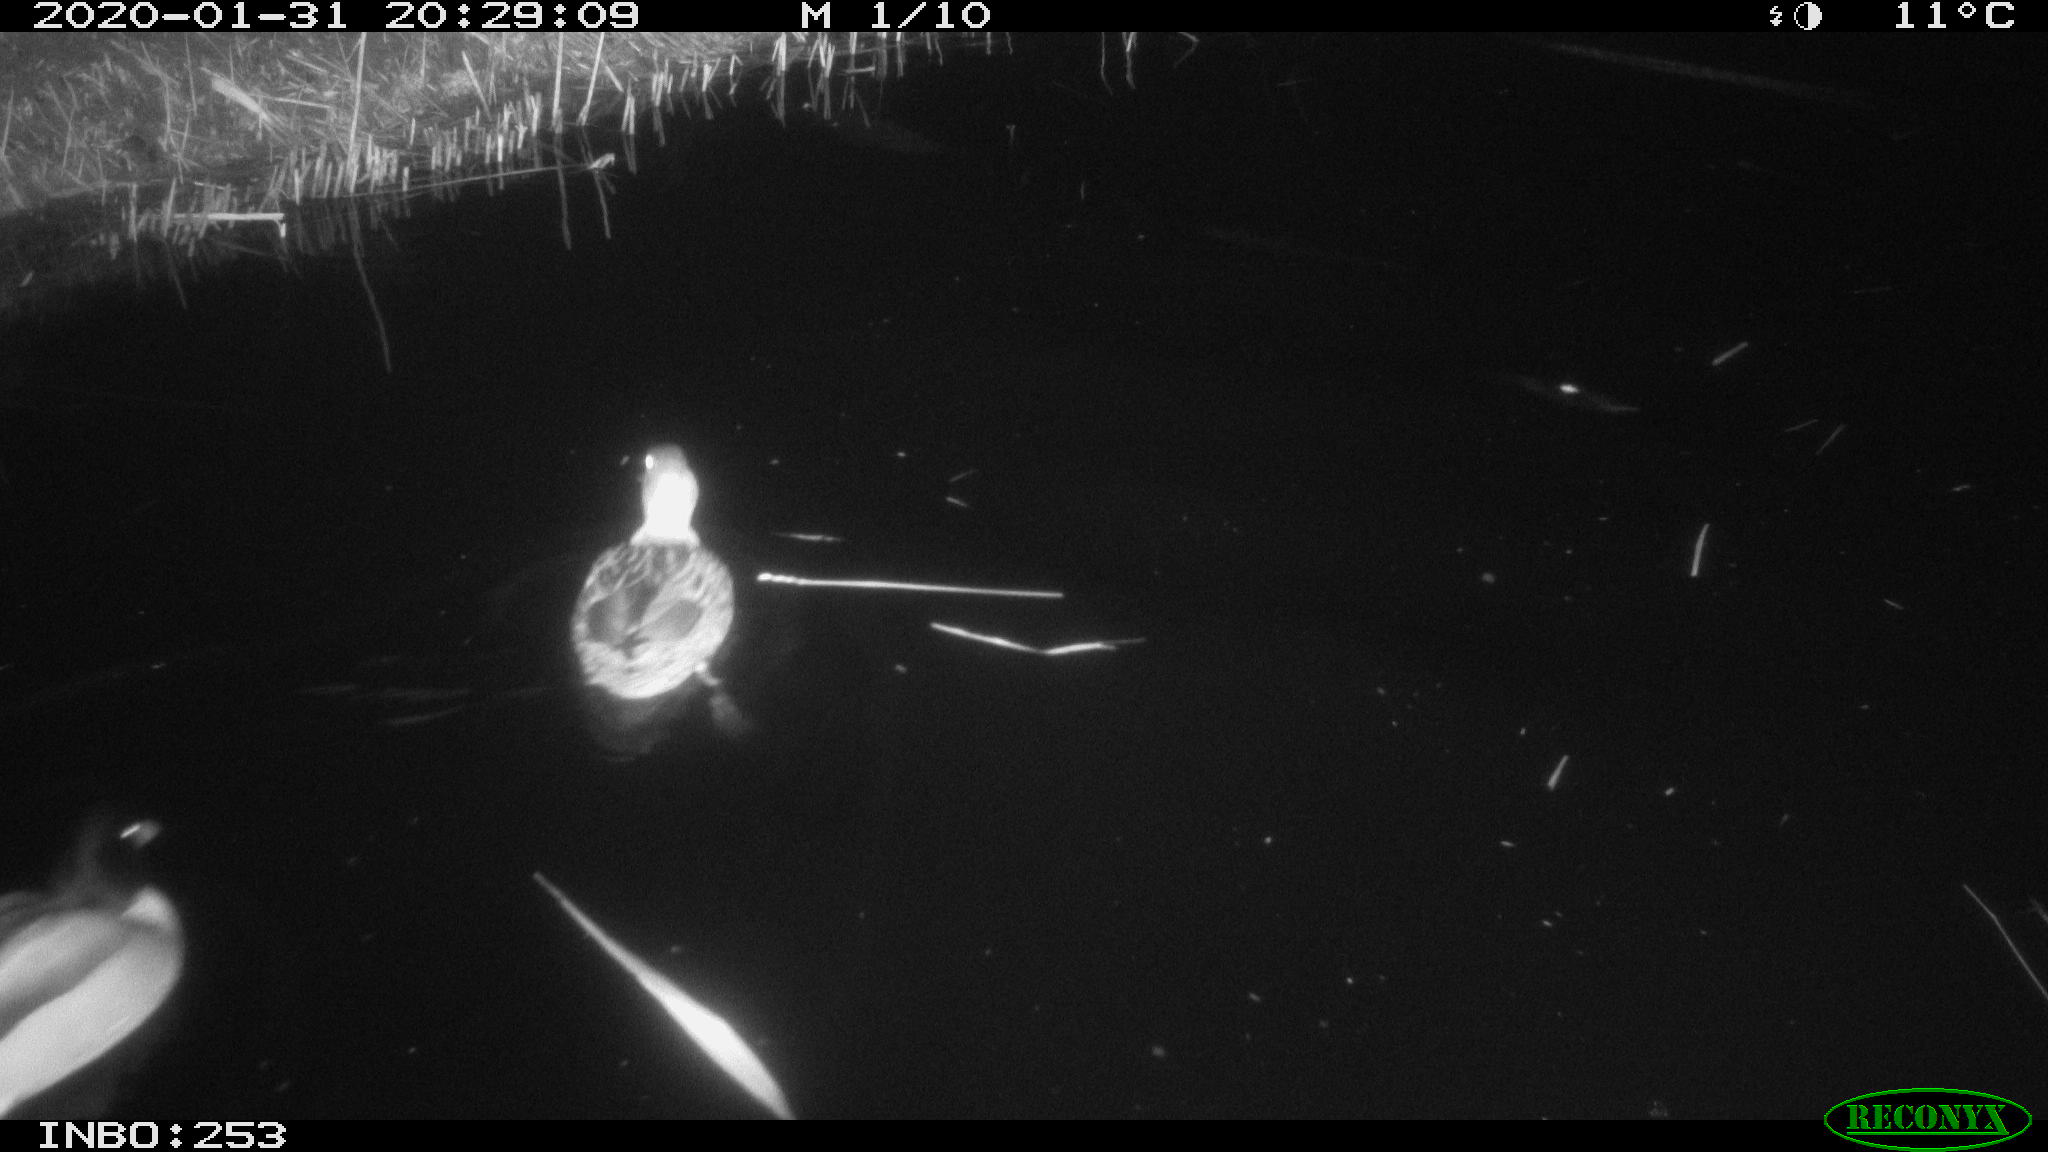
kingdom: Animalia
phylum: Chordata
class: Aves
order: Anseriformes
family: Anatidae
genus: Anas
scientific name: Anas platyrhynchos
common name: Mallard
